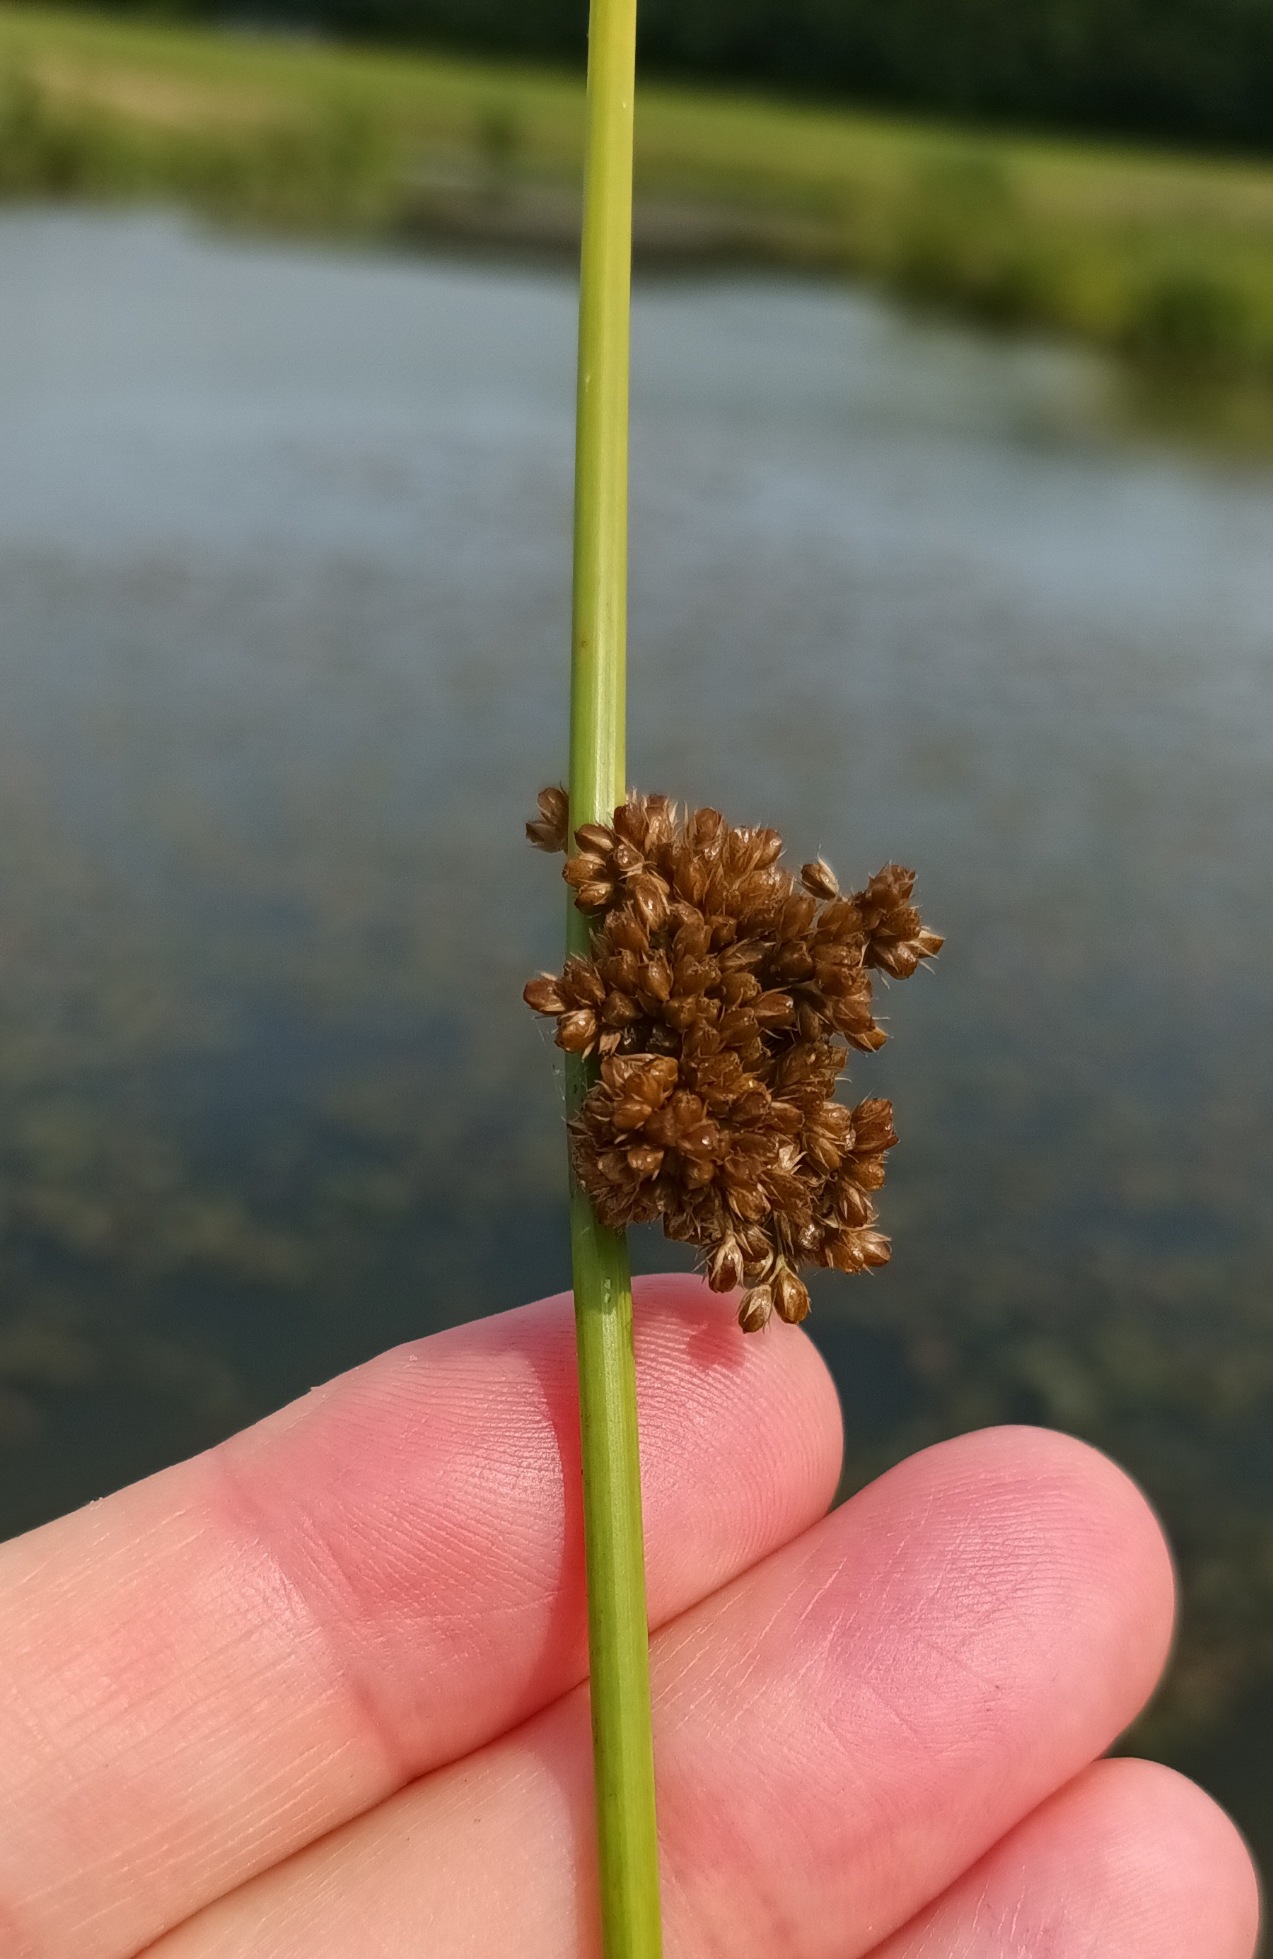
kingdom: Plantae
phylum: Tracheophyta
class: Liliopsida
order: Poales
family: Juncaceae
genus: Juncus
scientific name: Juncus effusus
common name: Lyse-siv
